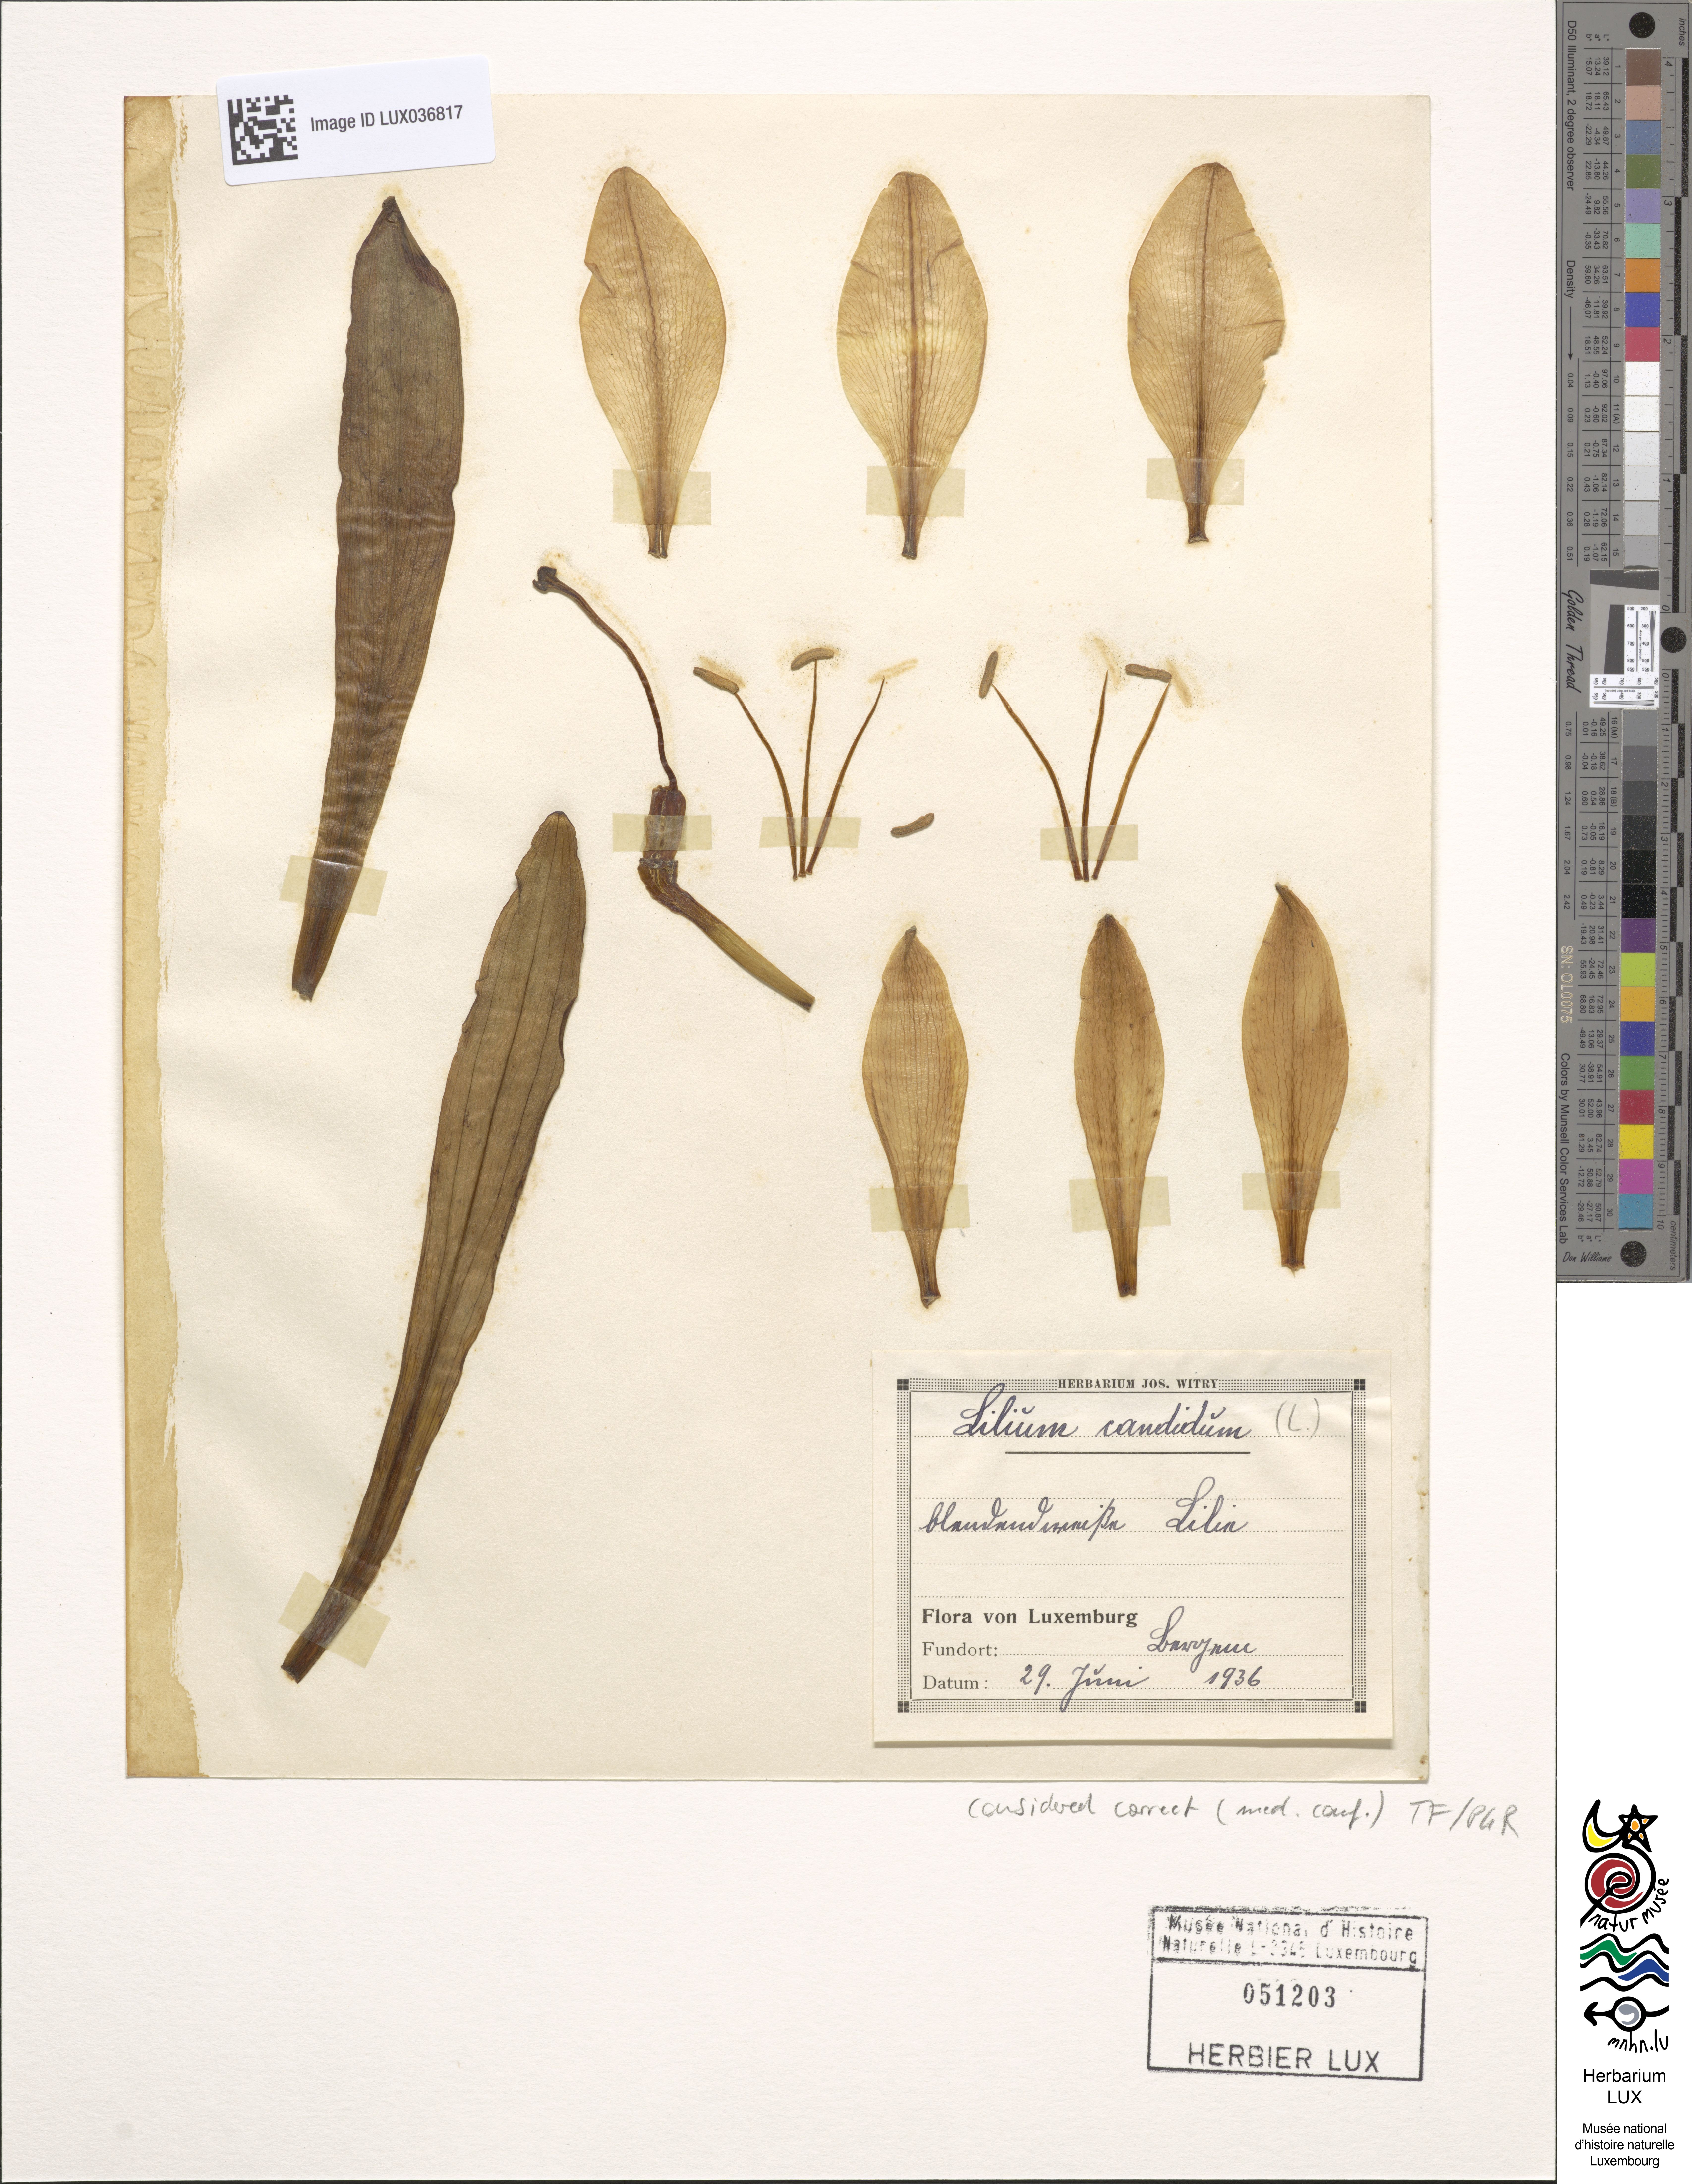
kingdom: Plantae
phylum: Tracheophyta
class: Liliopsida
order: Liliales
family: Liliaceae
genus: Lilium
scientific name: Lilium candidum
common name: Madonna lily
